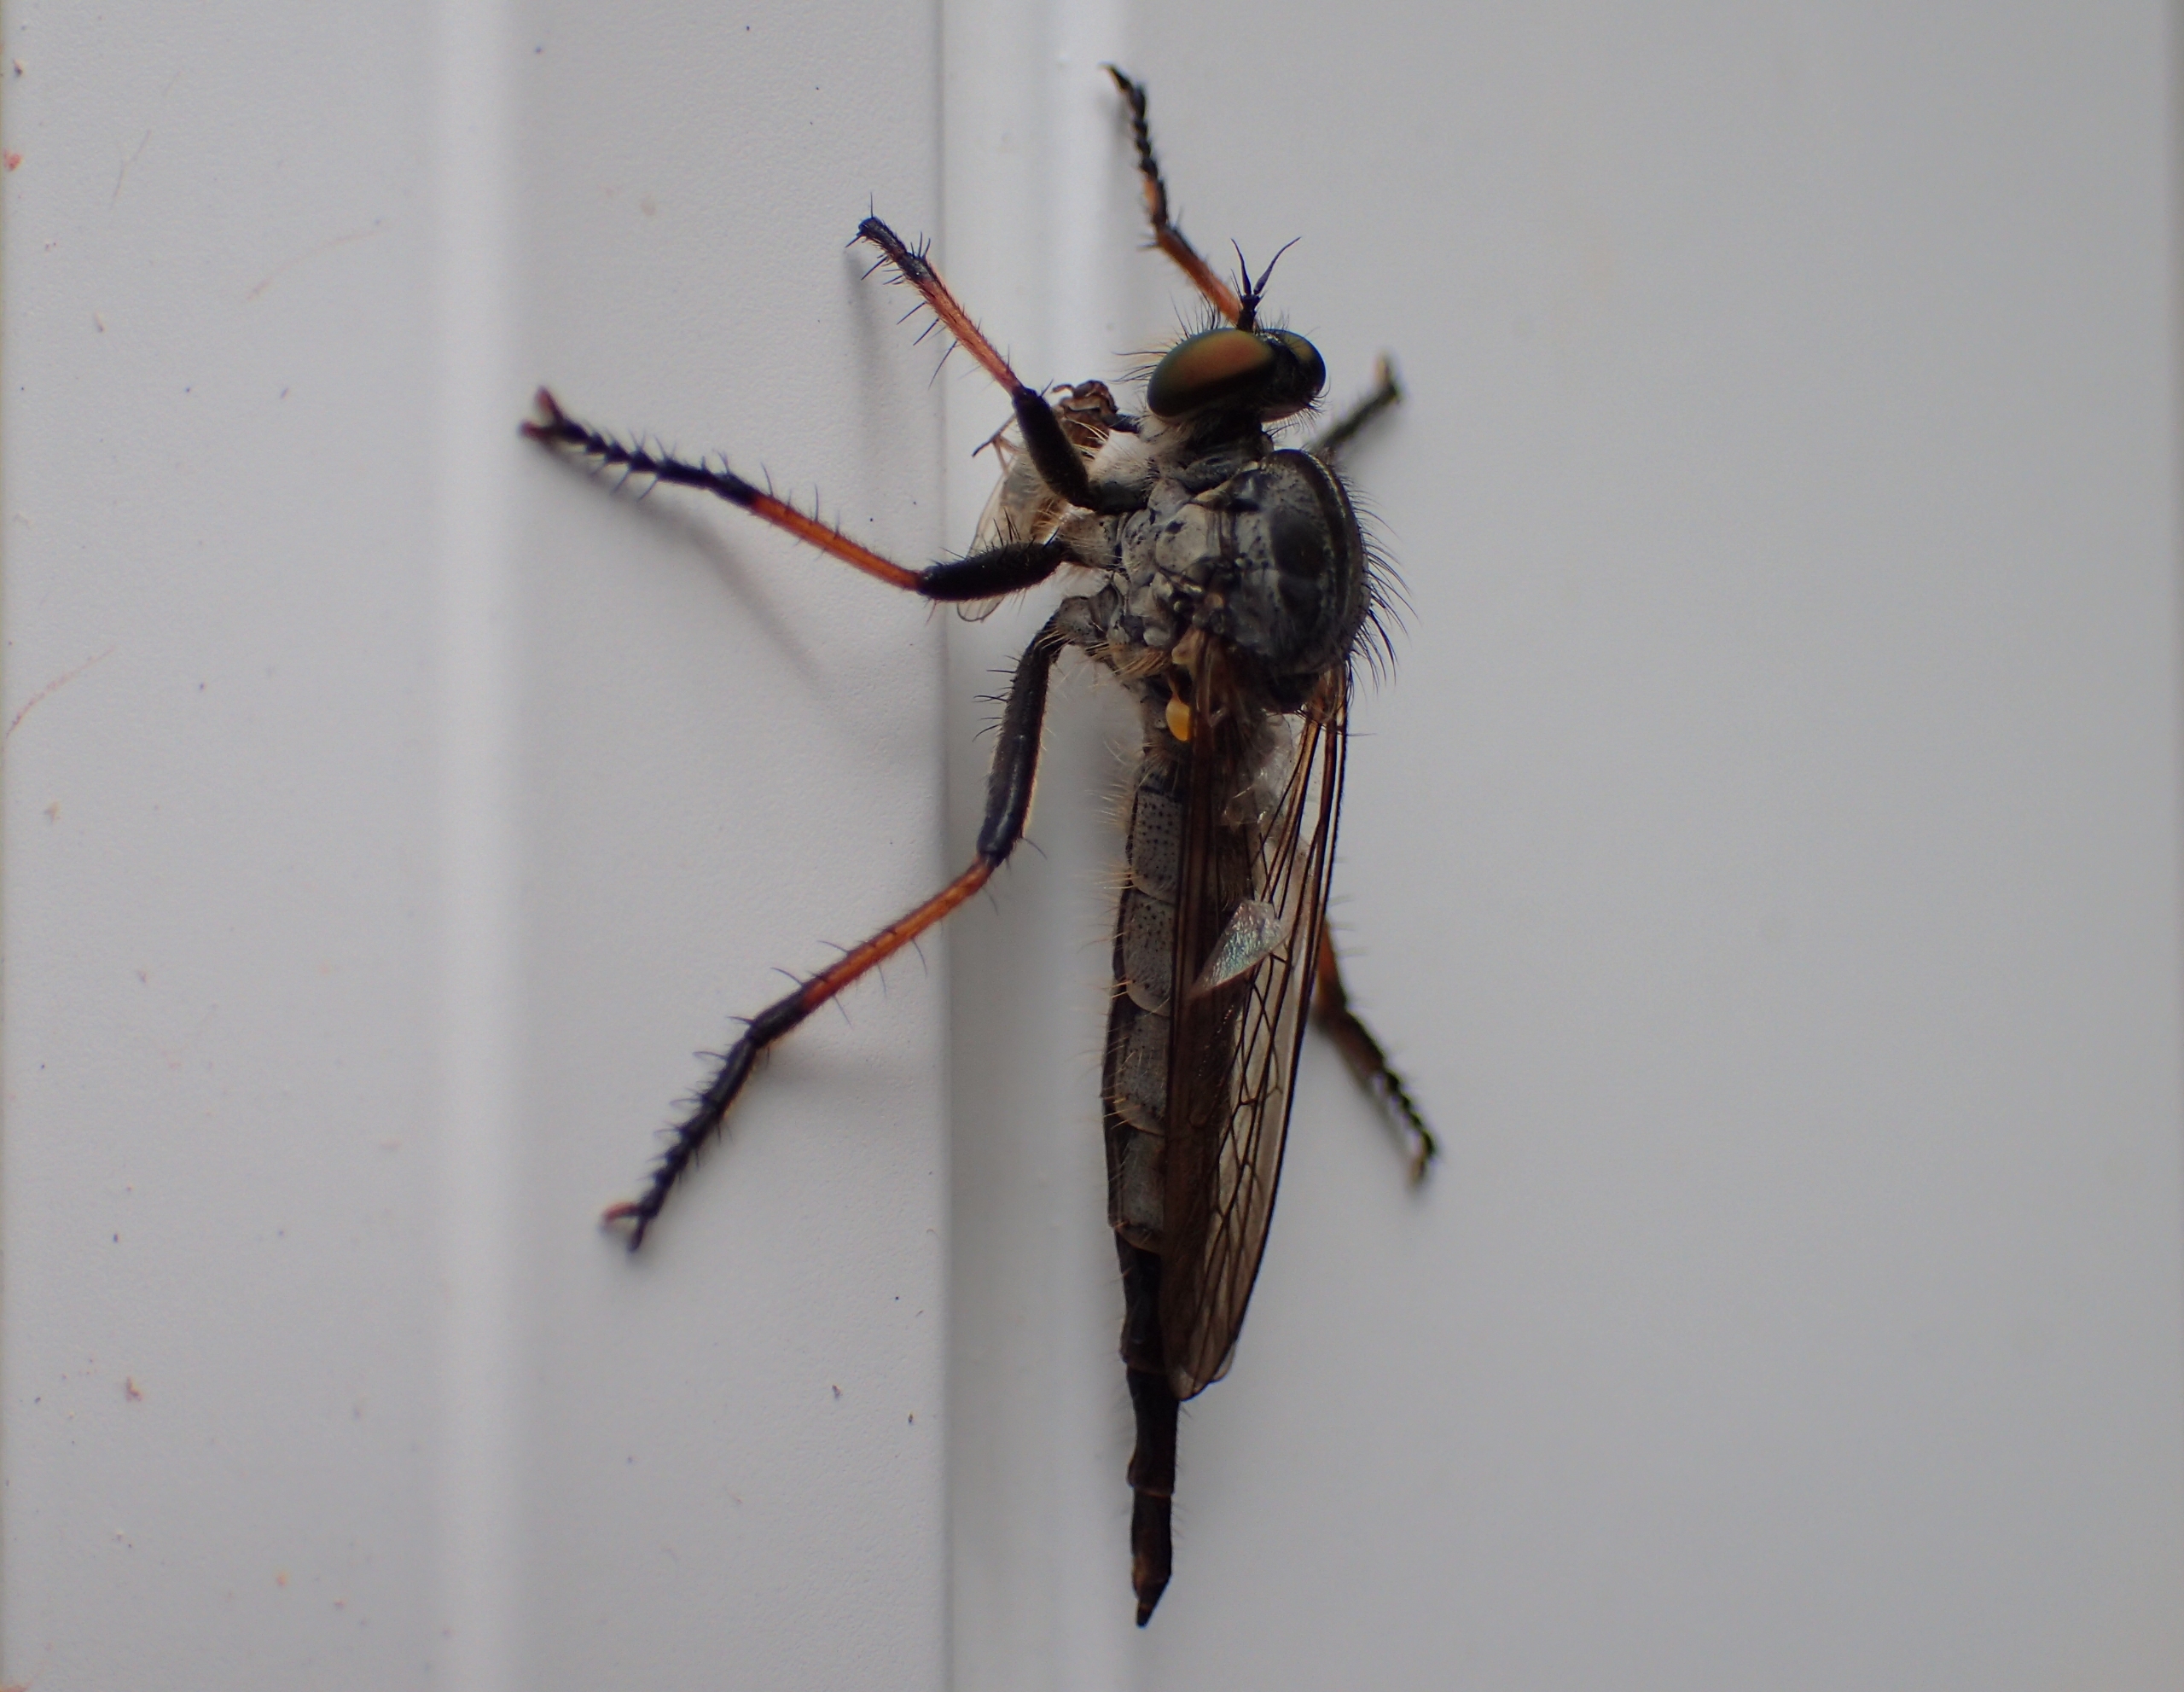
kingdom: Animalia
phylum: Arthropoda
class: Insecta
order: Diptera
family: Asilidae
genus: Neoitamus
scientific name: Neoitamus cyanurus
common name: Sortfodet skovrovflue
